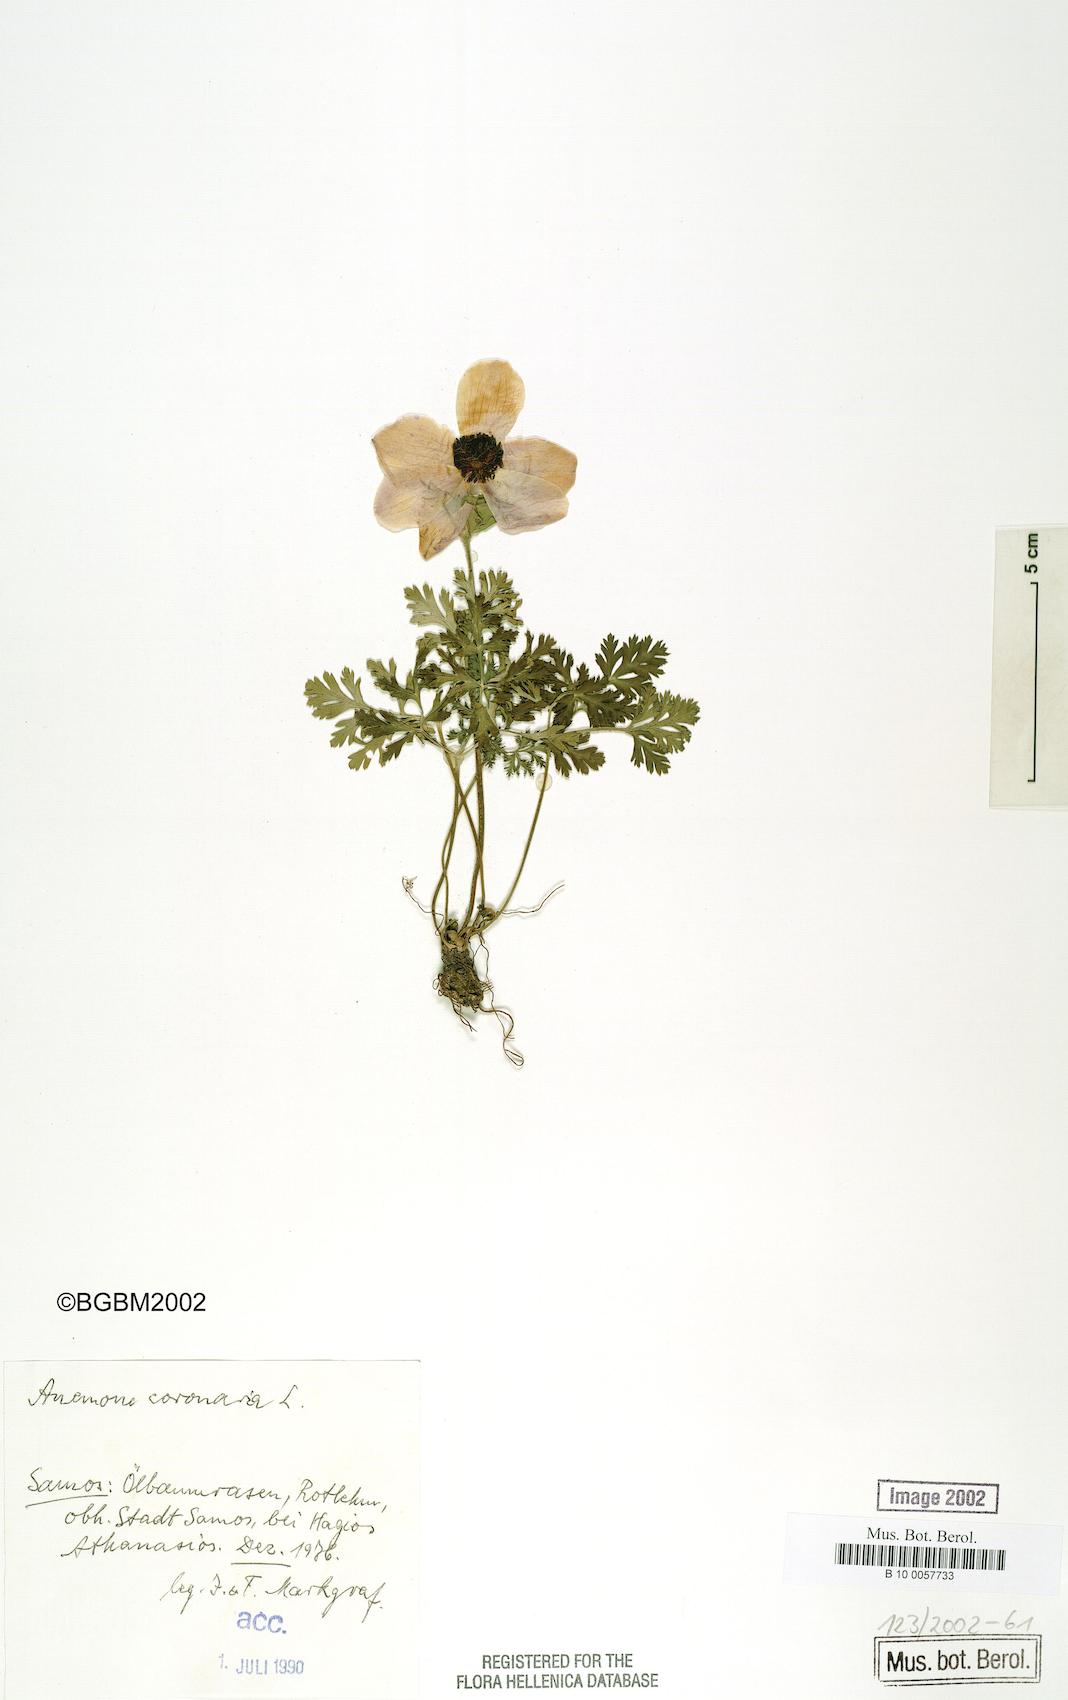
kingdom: Plantae
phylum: Tracheophyta
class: Magnoliopsida
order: Ranunculales
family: Ranunculaceae
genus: Anemone
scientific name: Anemone coronaria
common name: Poppy anemone
